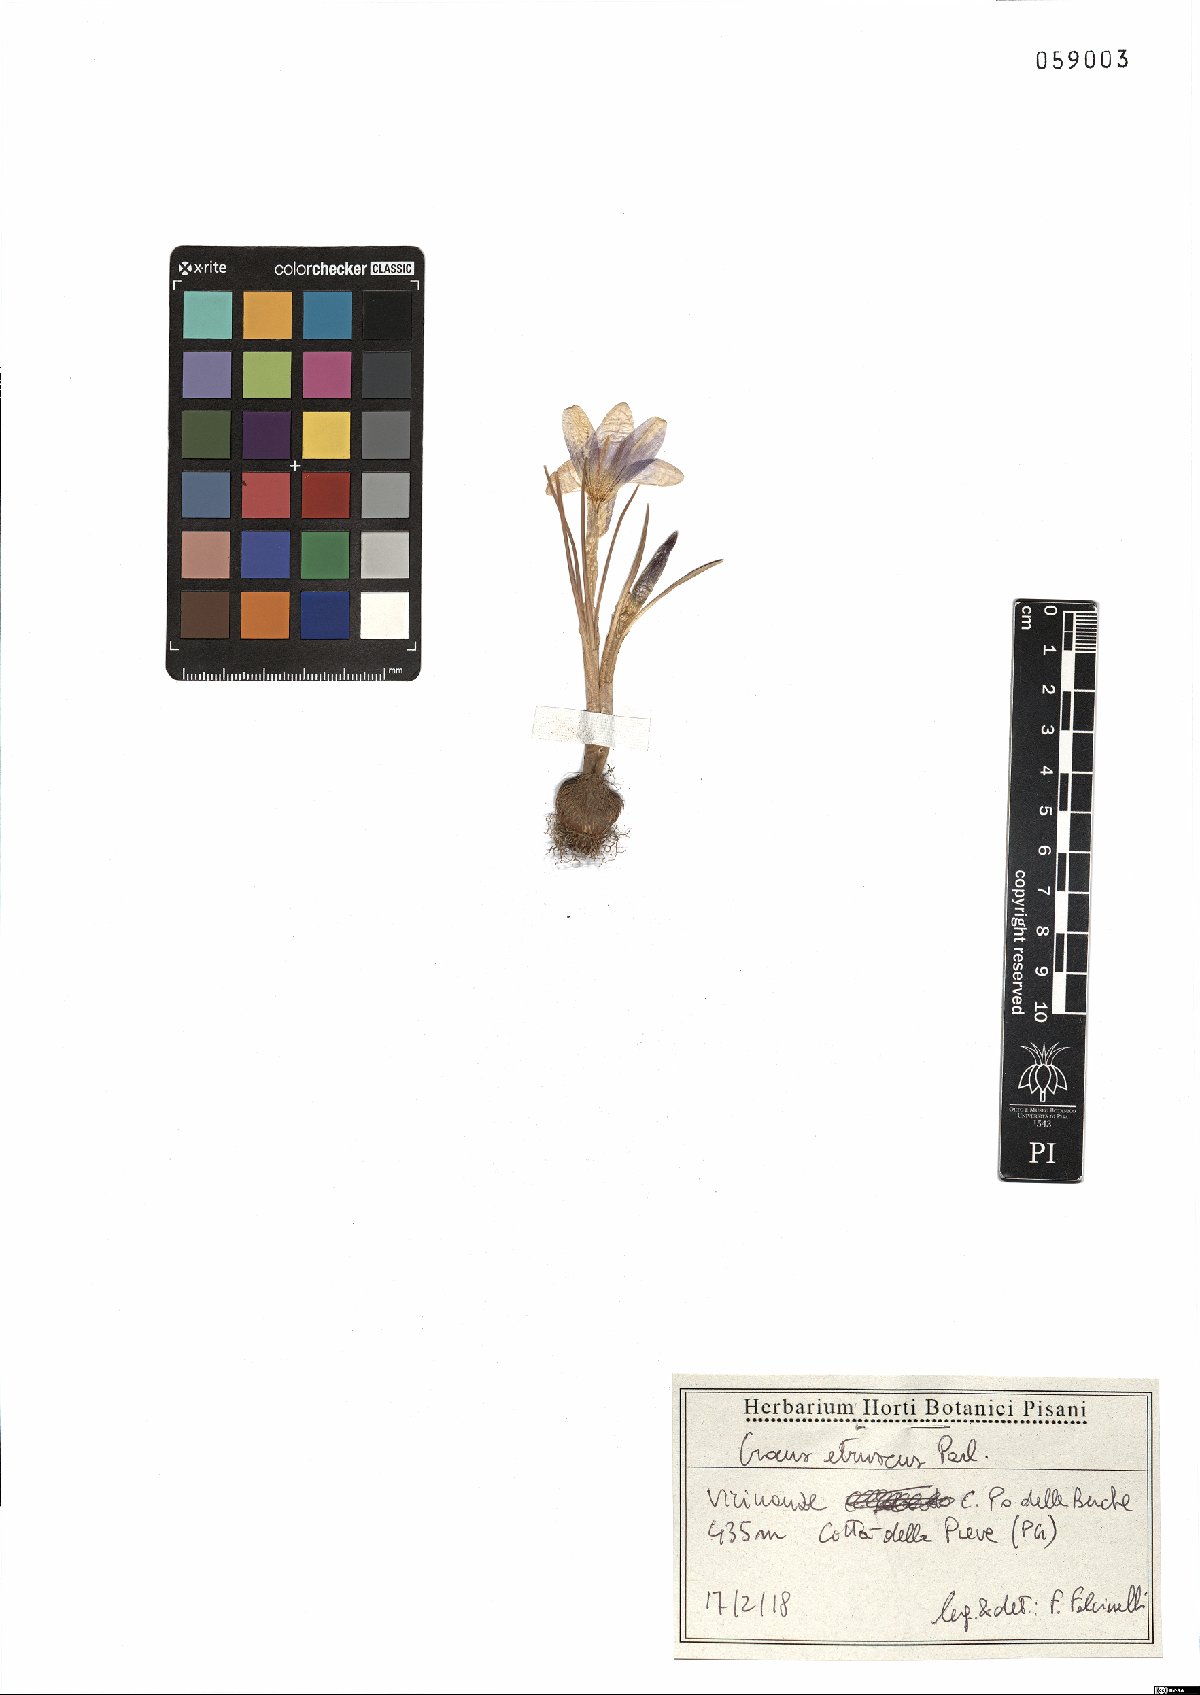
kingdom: Plantae
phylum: Tracheophyta
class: Liliopsida
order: Asparagales
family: Iridaceae
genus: Crocus
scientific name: Crocus etruscus
